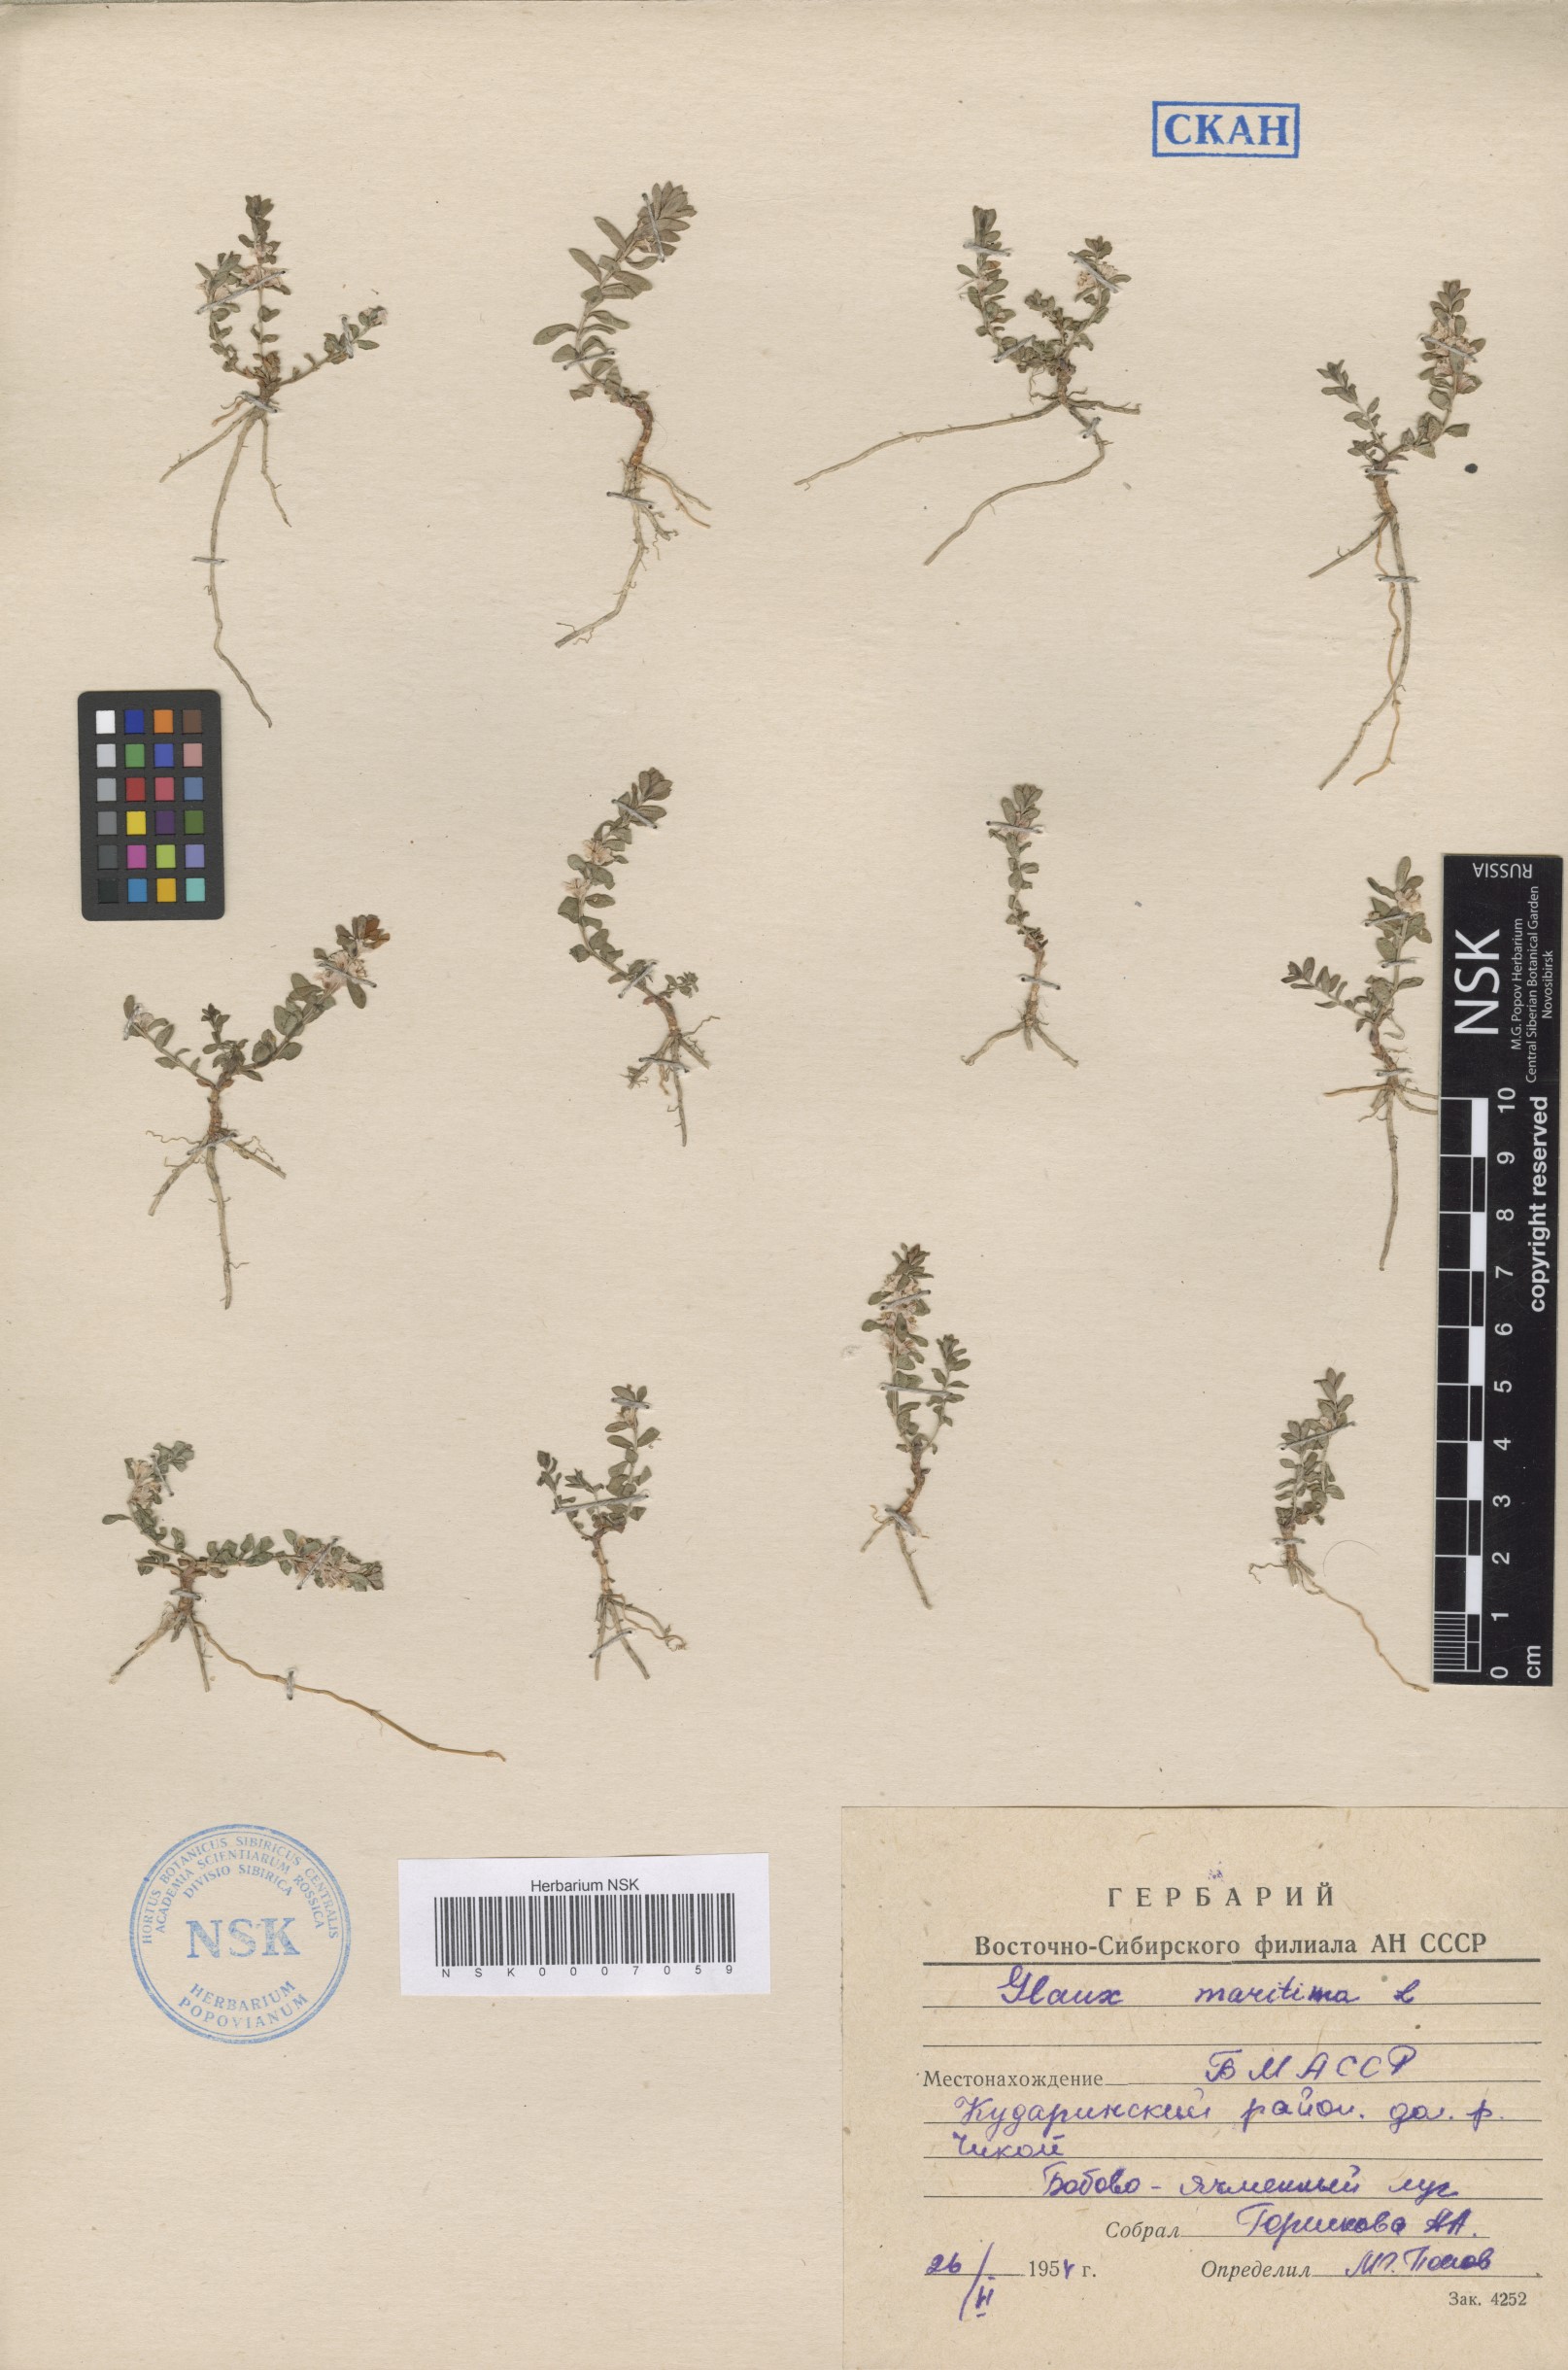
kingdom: Plantae
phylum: Tracheophyta
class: Magnoliopsida
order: Ericales
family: Primulaceae
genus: Lysimachia
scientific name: Lysimachia maritima
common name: Sea milkwort
